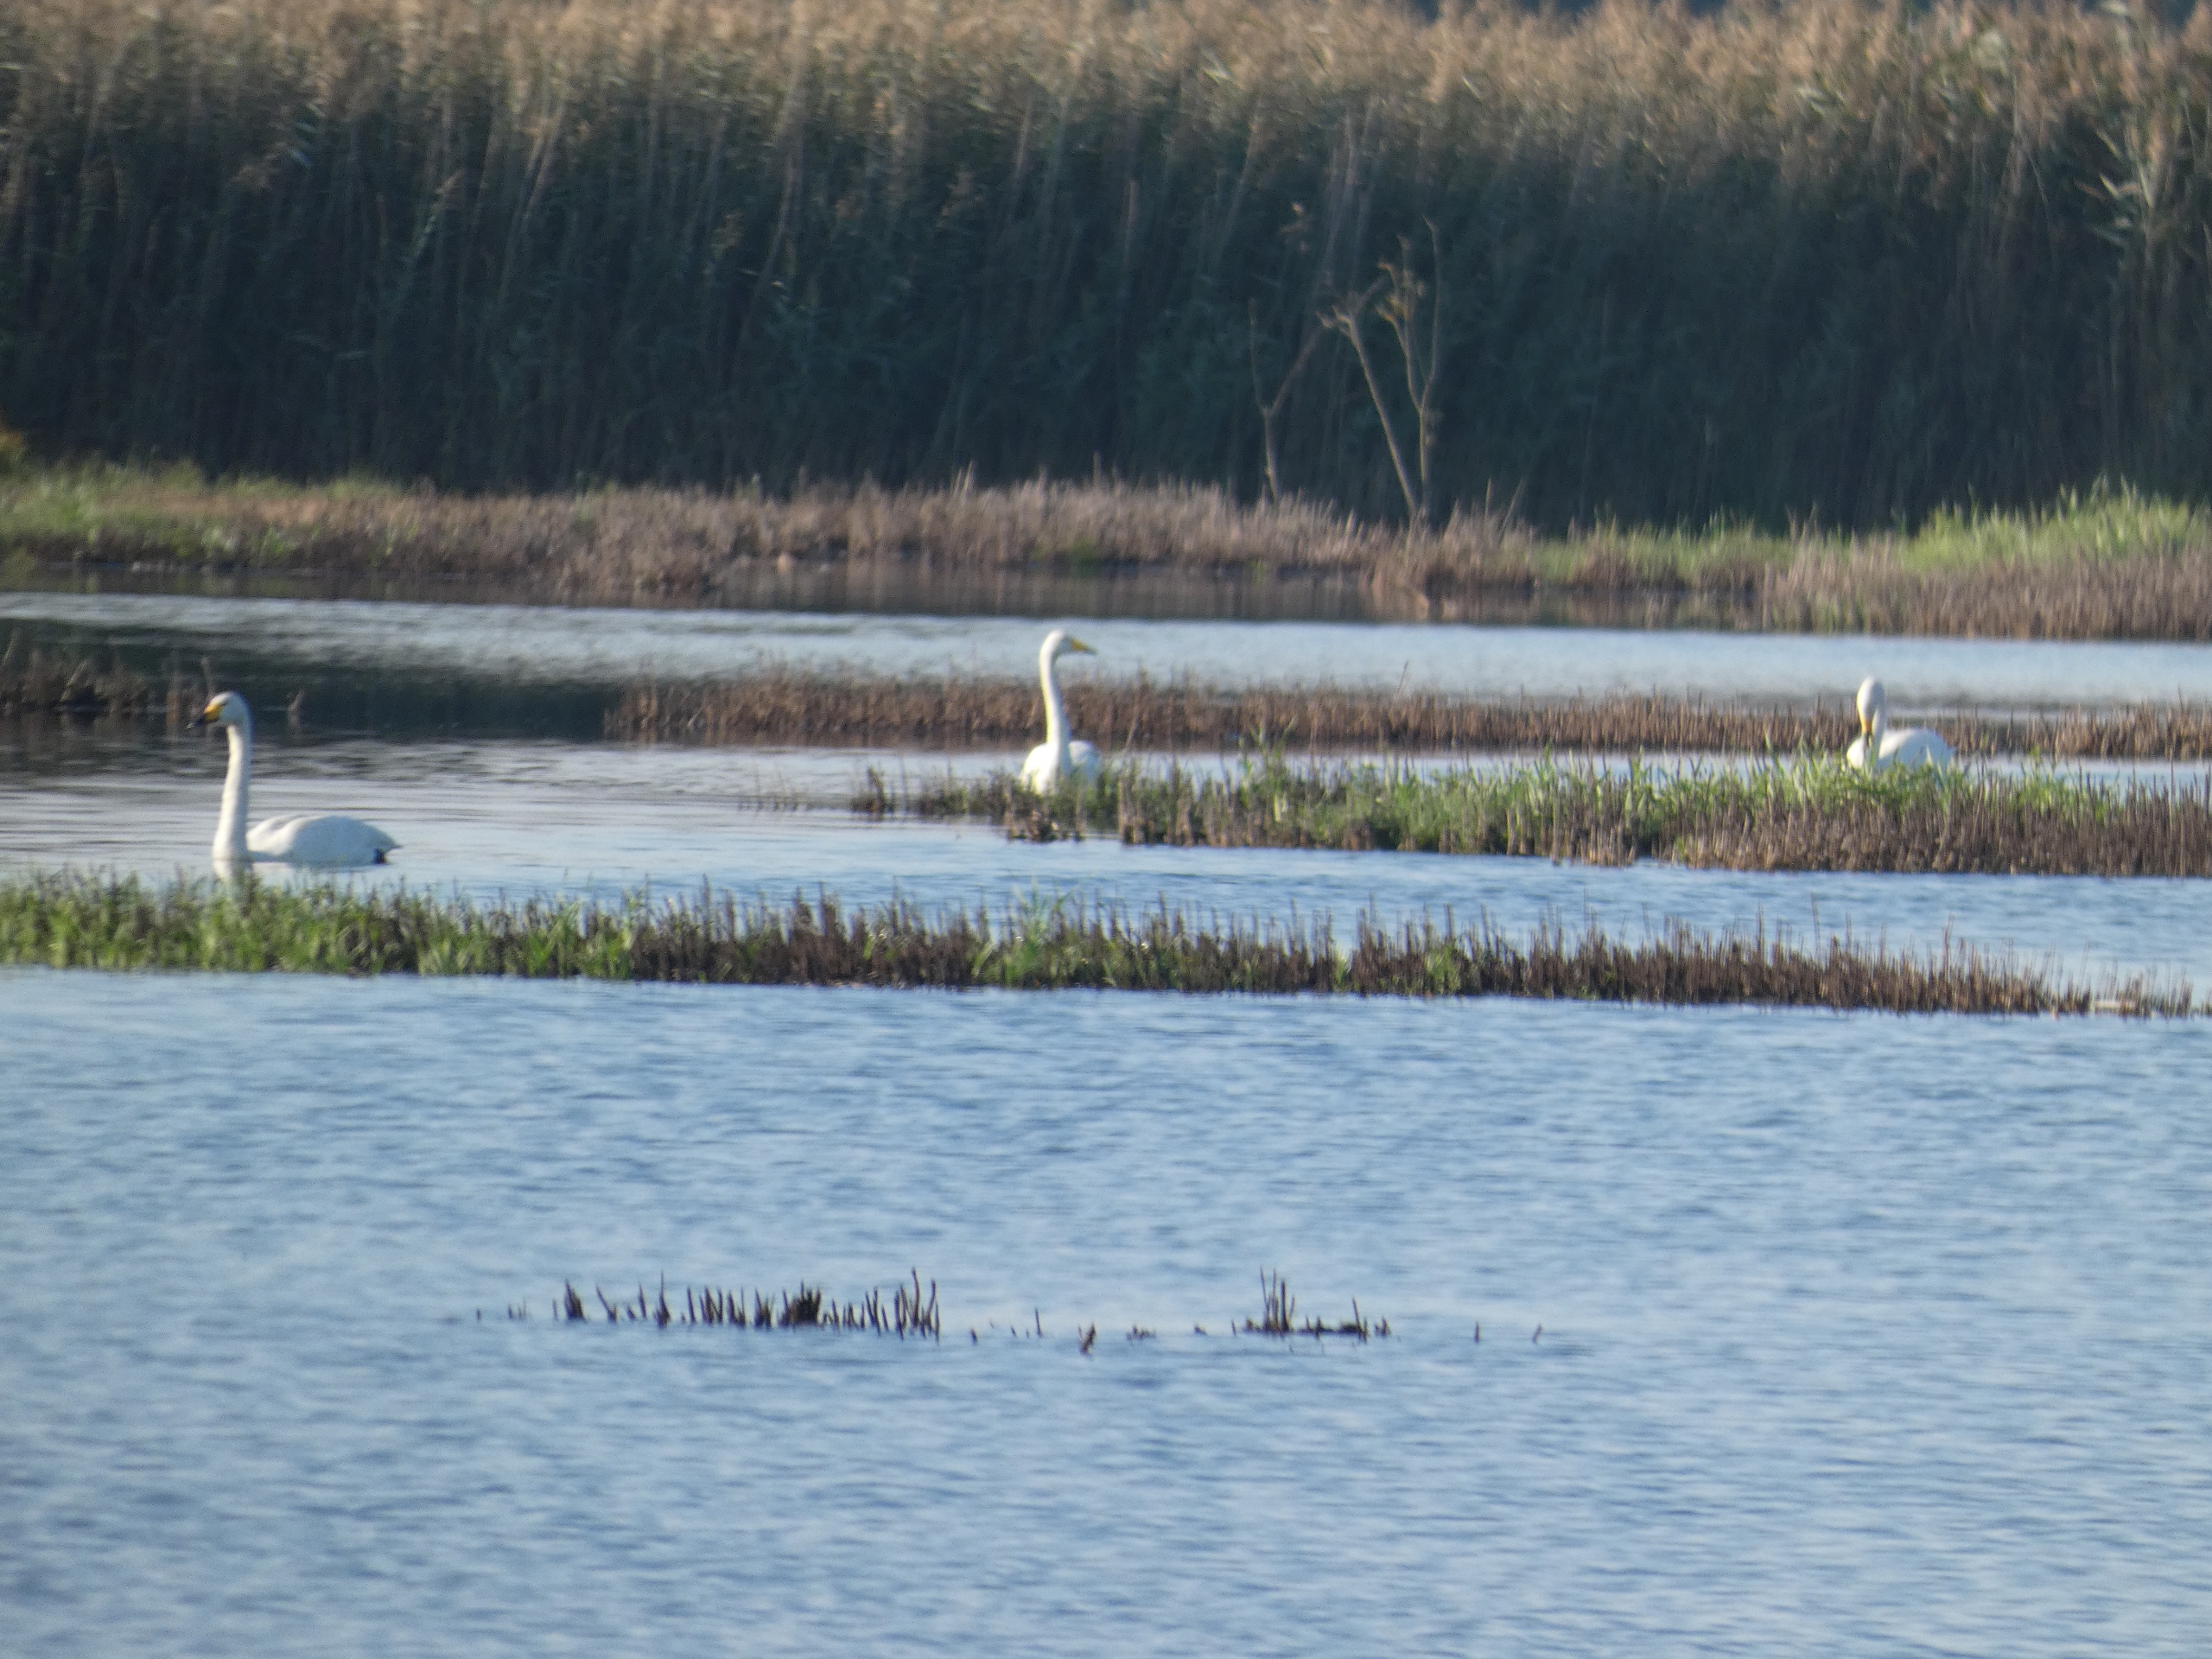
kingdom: Animalia
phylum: Chordata
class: Aves
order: Anseriformes
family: Anatidae
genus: Cygnus
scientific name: Cygnus cygnus
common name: Sangsvane
